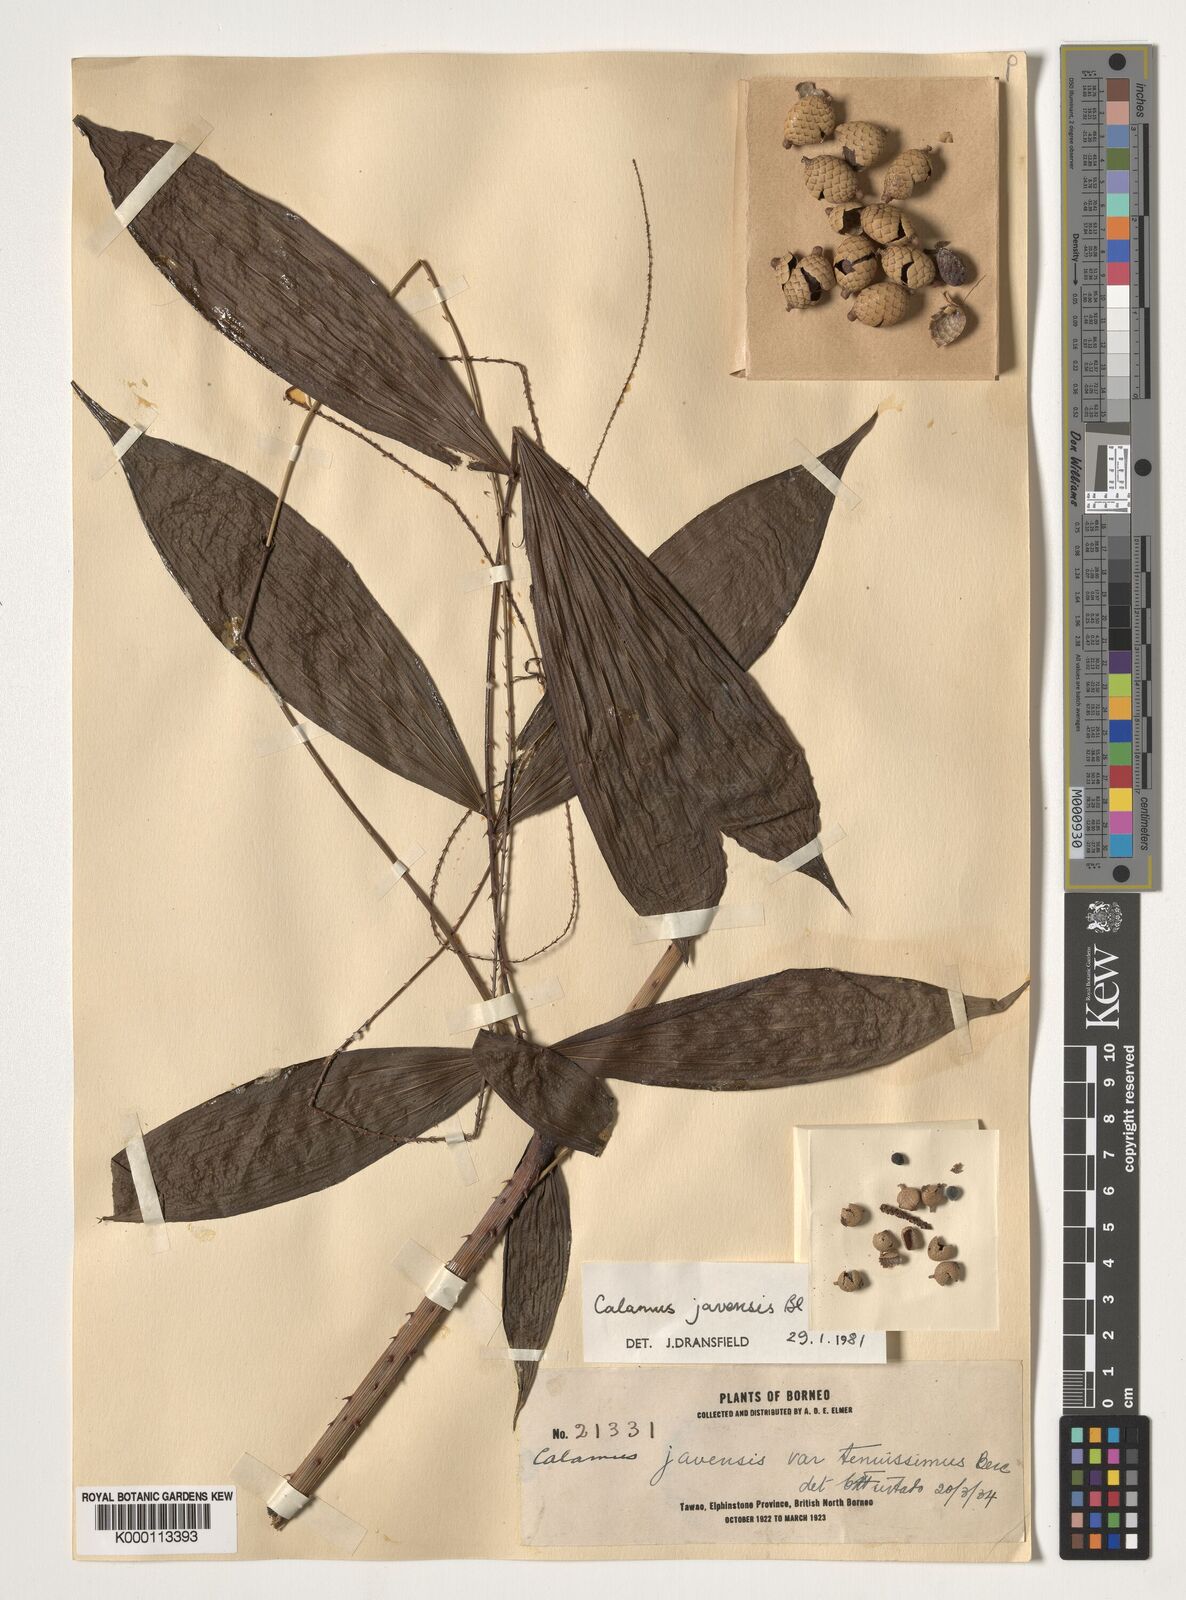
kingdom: Plantae
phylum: Tracheophyta
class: Liliopsida
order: Arecales
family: Arecaceae
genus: Calamus
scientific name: Calamus javensis
